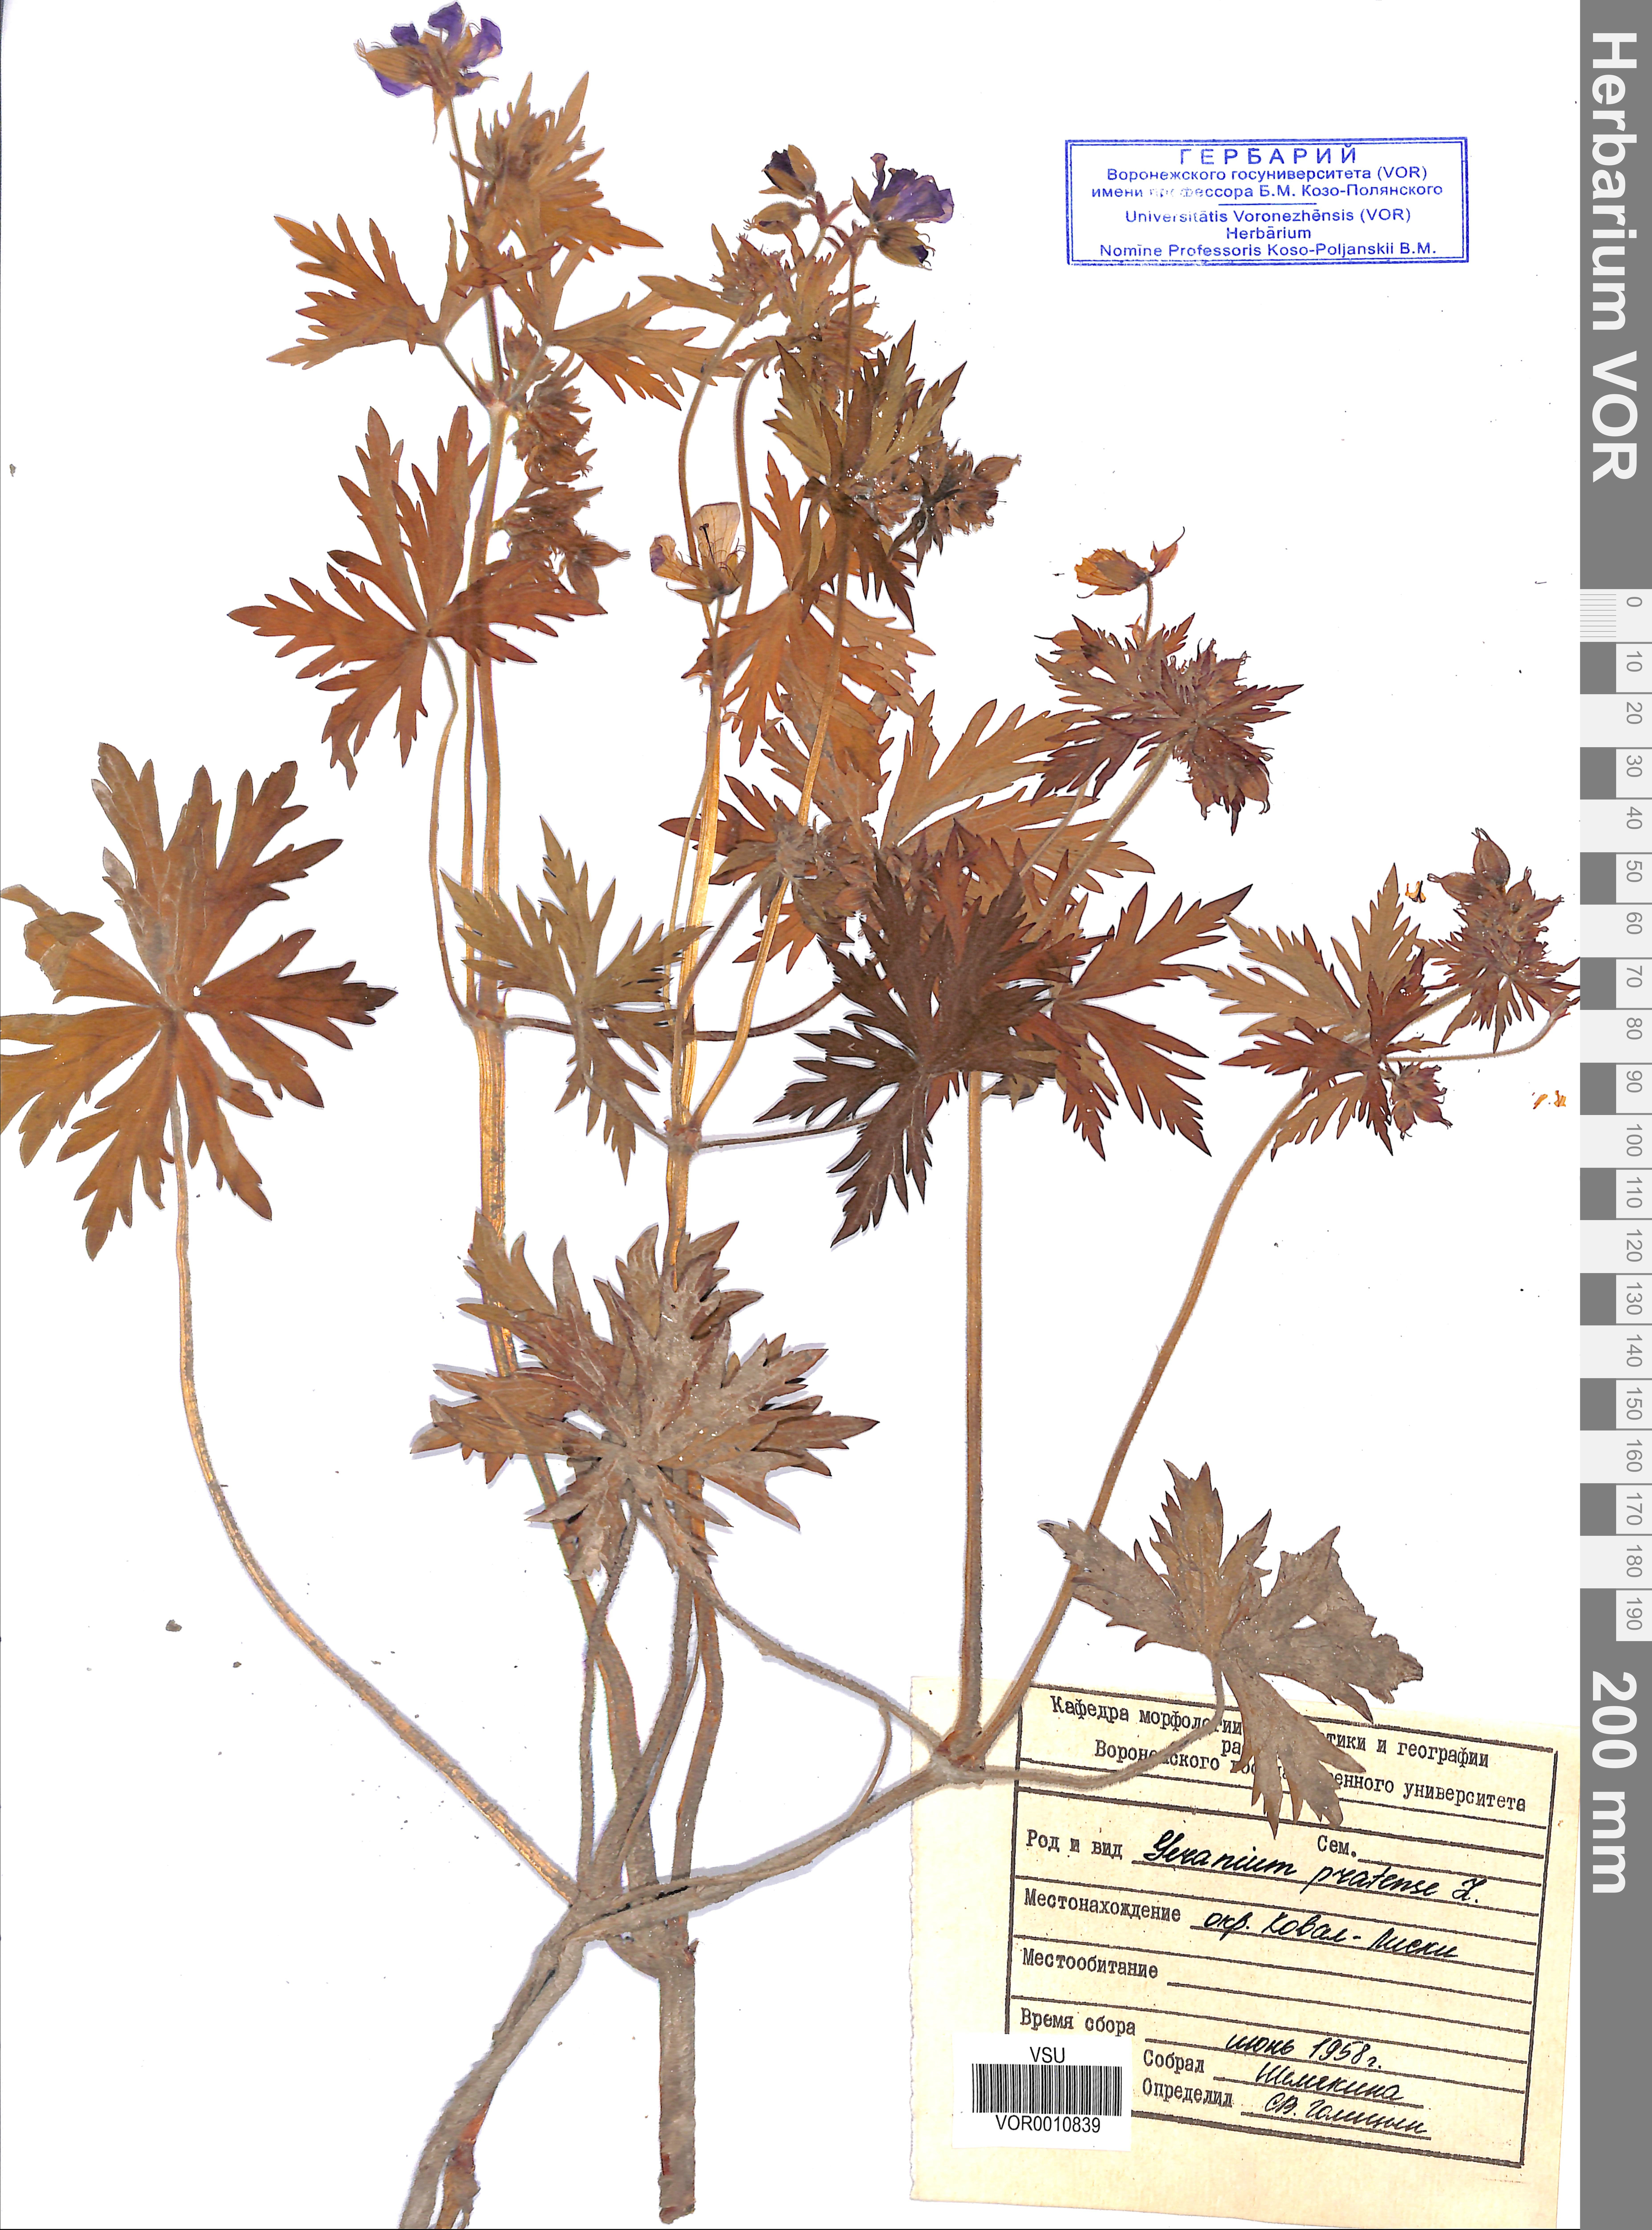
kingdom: Plantae
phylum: Tracheophyta
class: Magnoliopsida
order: Geraniales
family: Geraniaceae
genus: Geranium
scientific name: Geranium pratense
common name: Meadow crane's-bill
